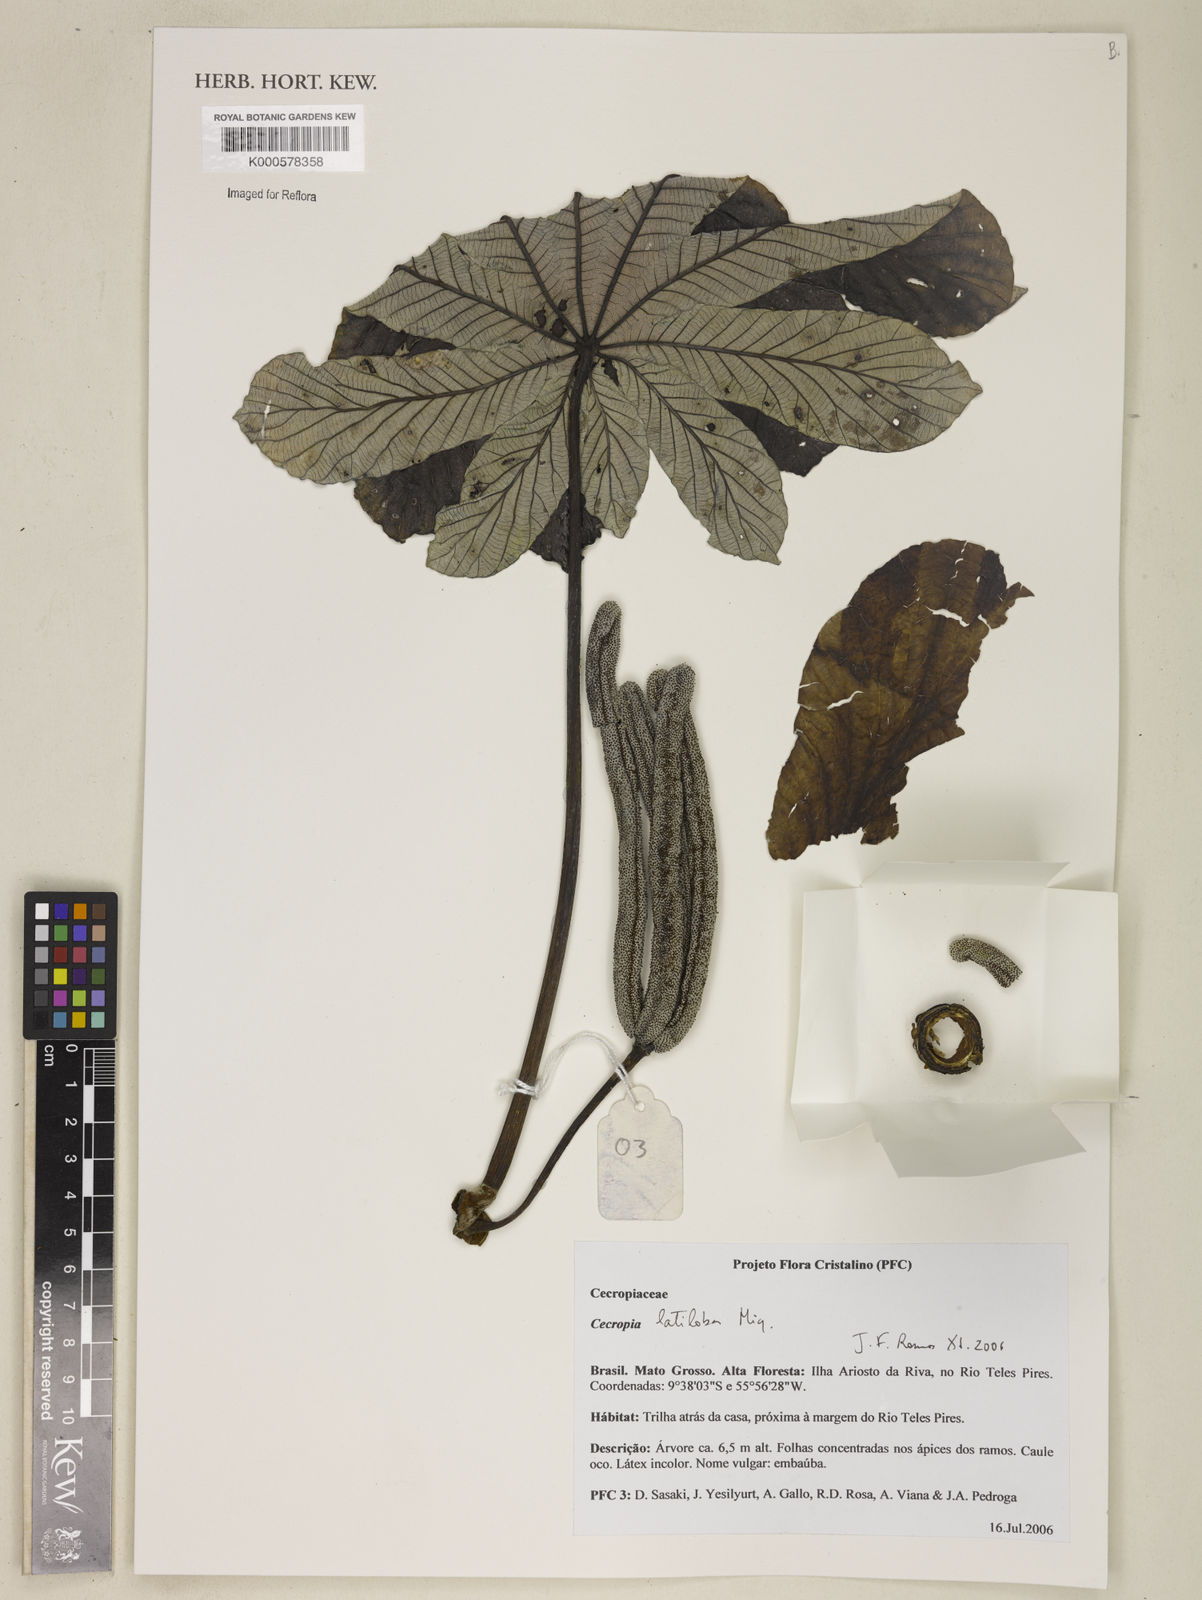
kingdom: Plantae
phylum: Tracheophyta
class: Magnoliopsida
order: Rosales
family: Urticaceae
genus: Cecropia
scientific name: Cecropia latiloba
